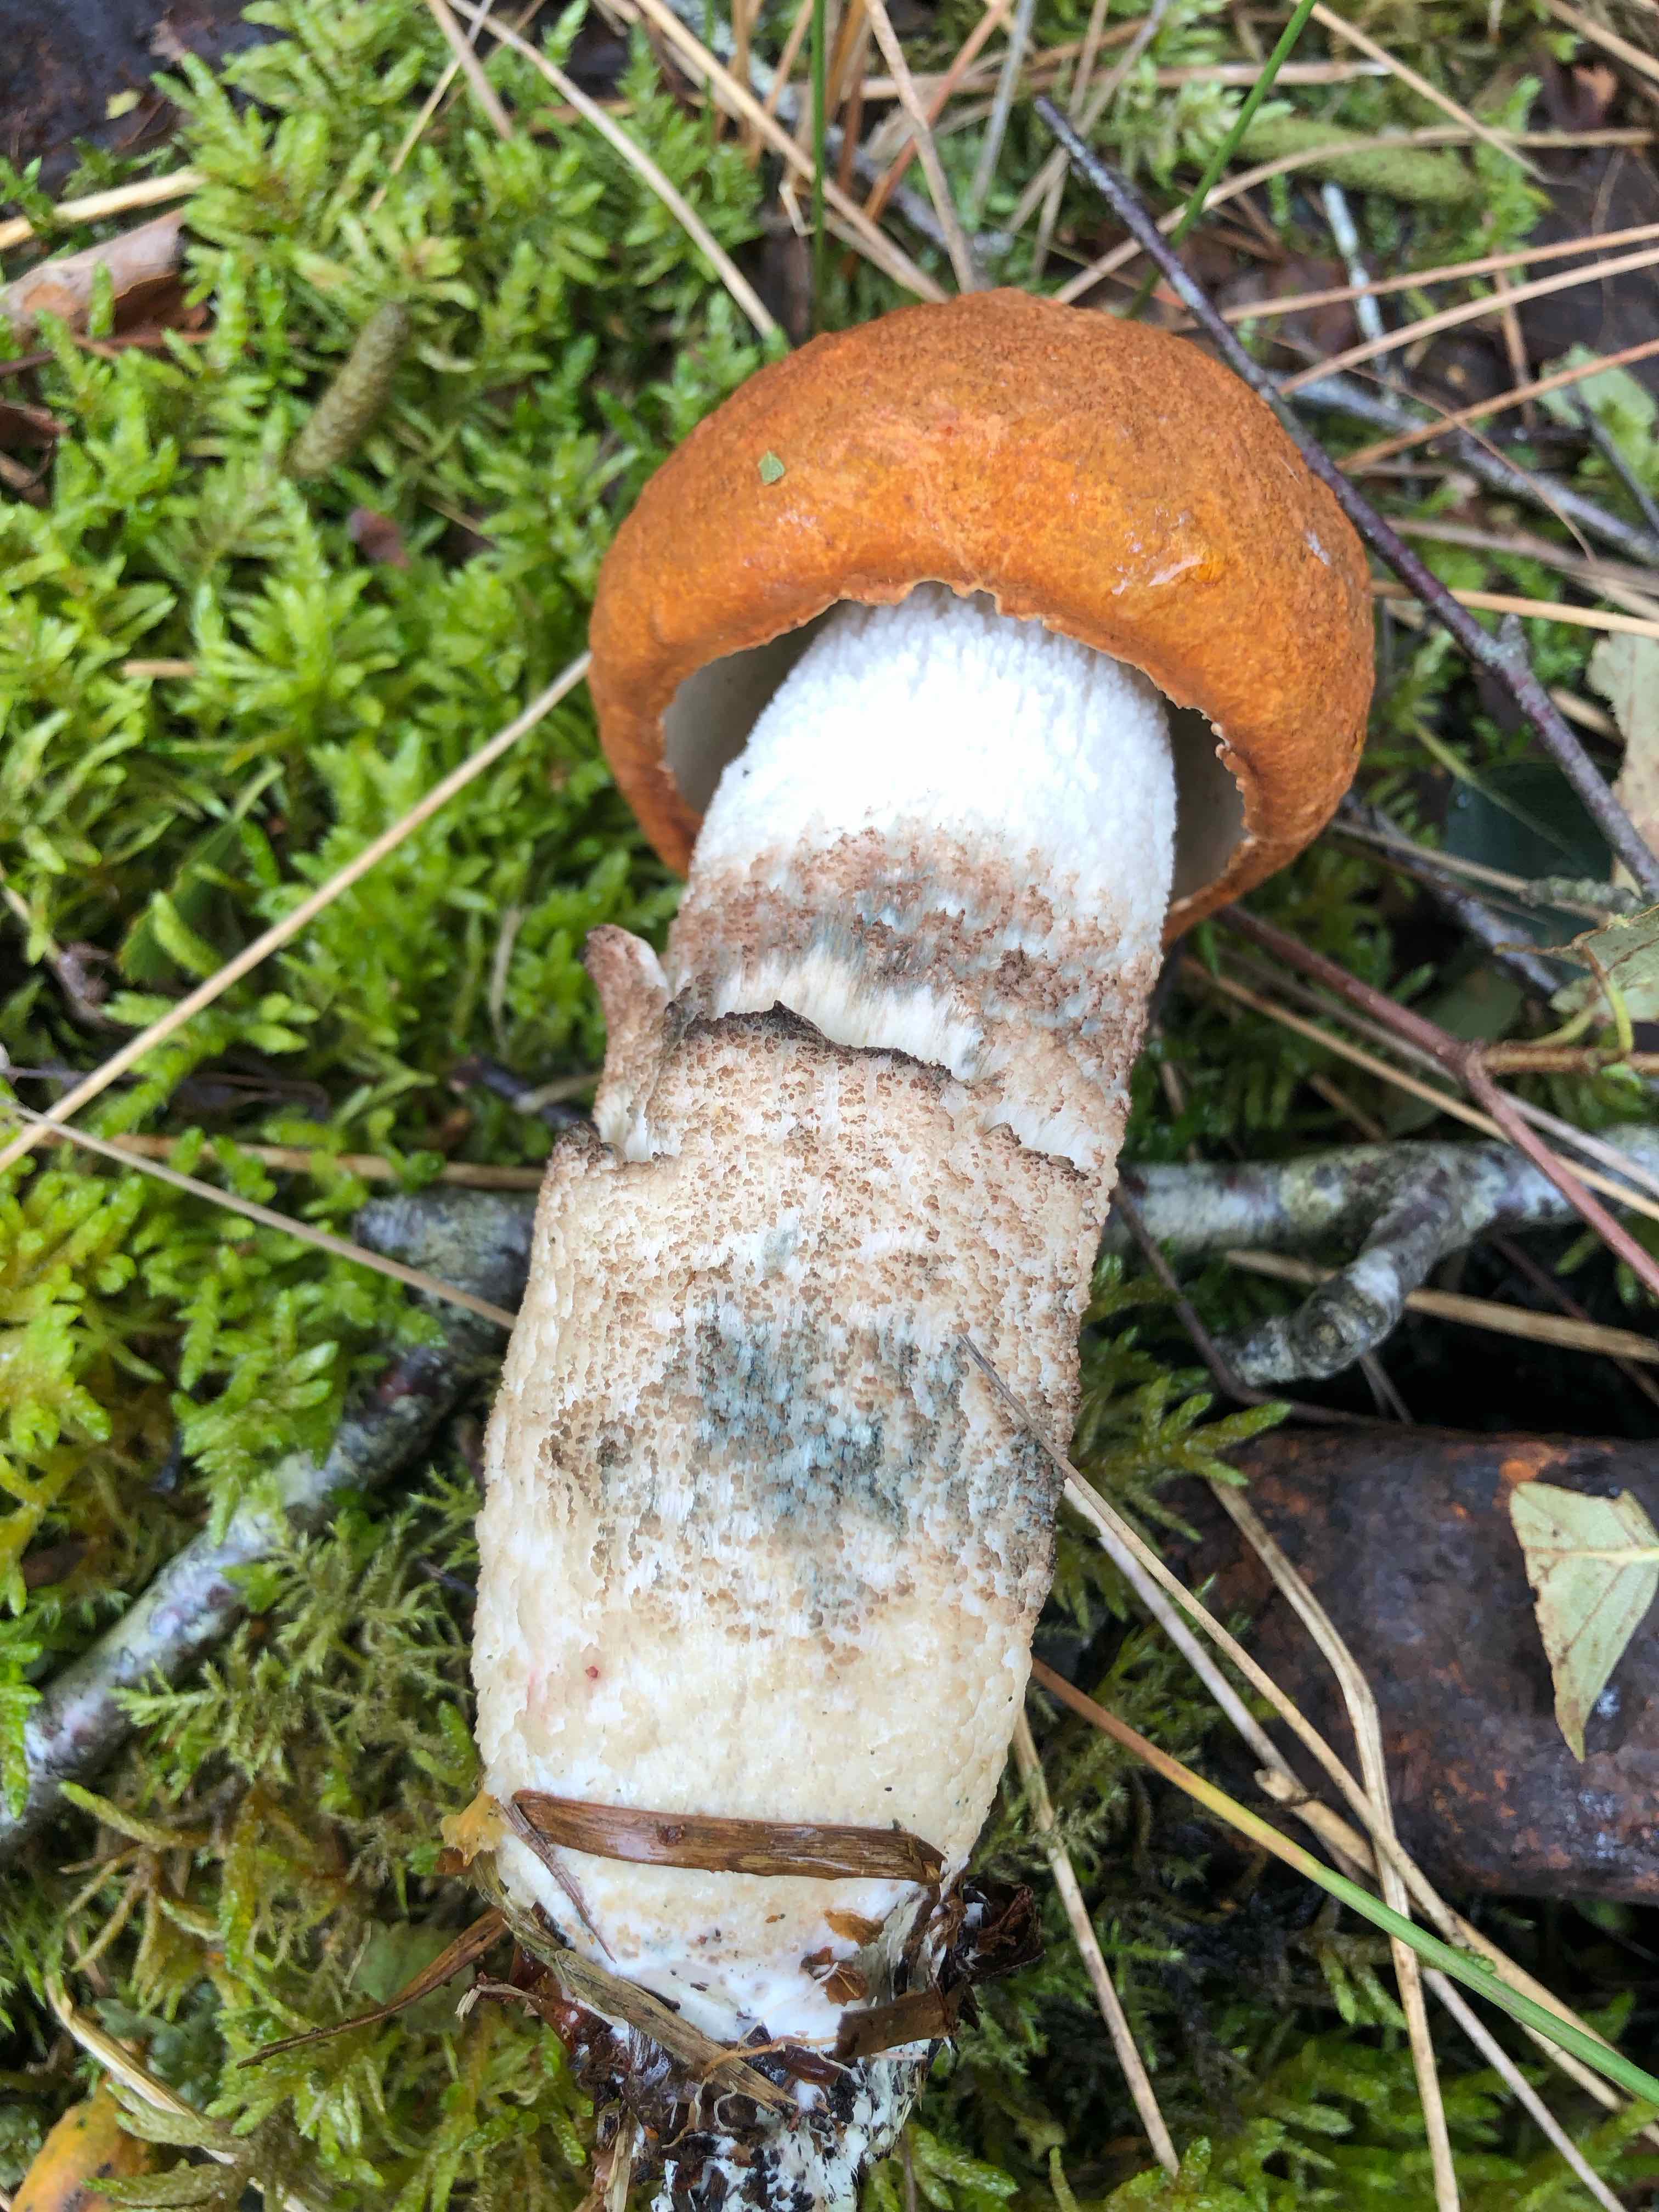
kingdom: Fungi
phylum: Basidiomycota
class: Agaricomycetes
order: Boletales
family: Boletaceae
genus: Leccinum
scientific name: Leccinum albostipitatum
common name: aspe-skælrørhat
